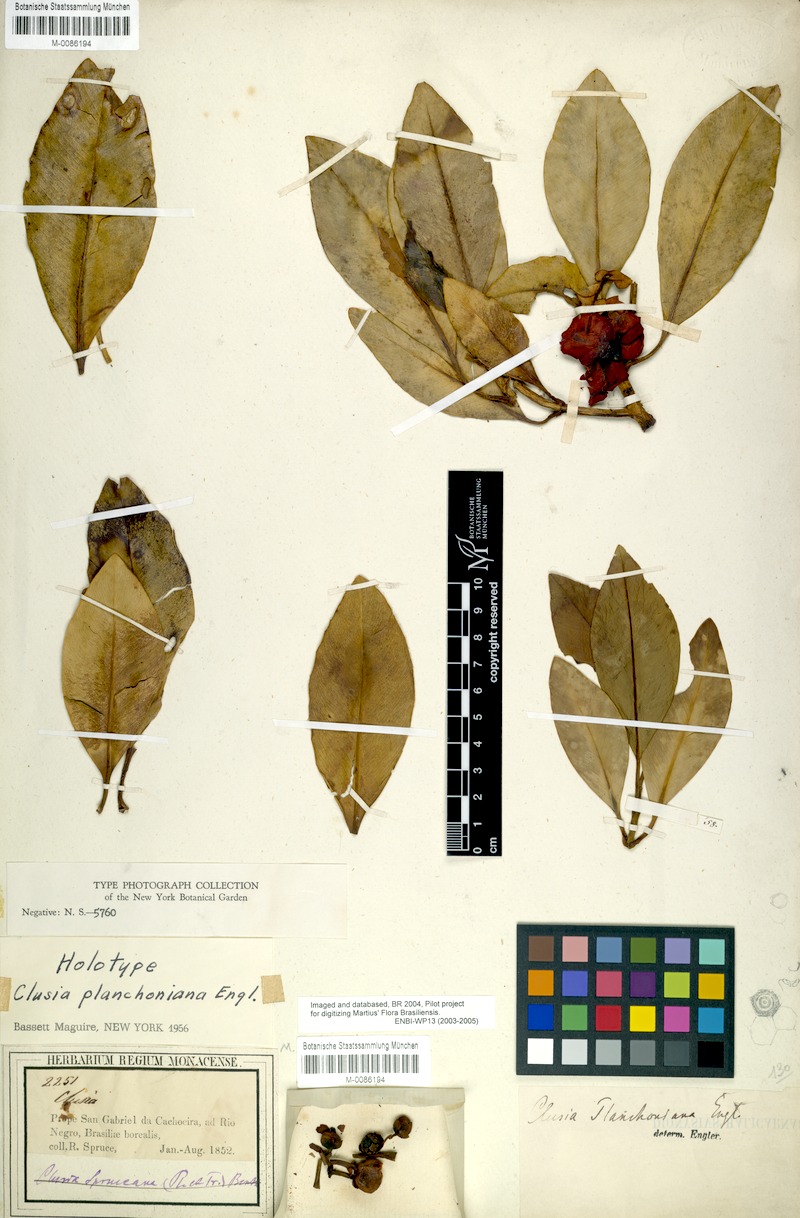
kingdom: Plantae
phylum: Tracheophyta
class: Magnoliopsida
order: Malpighiales
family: Clusiaceae
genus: Clusia
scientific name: Clusia planchoniana
